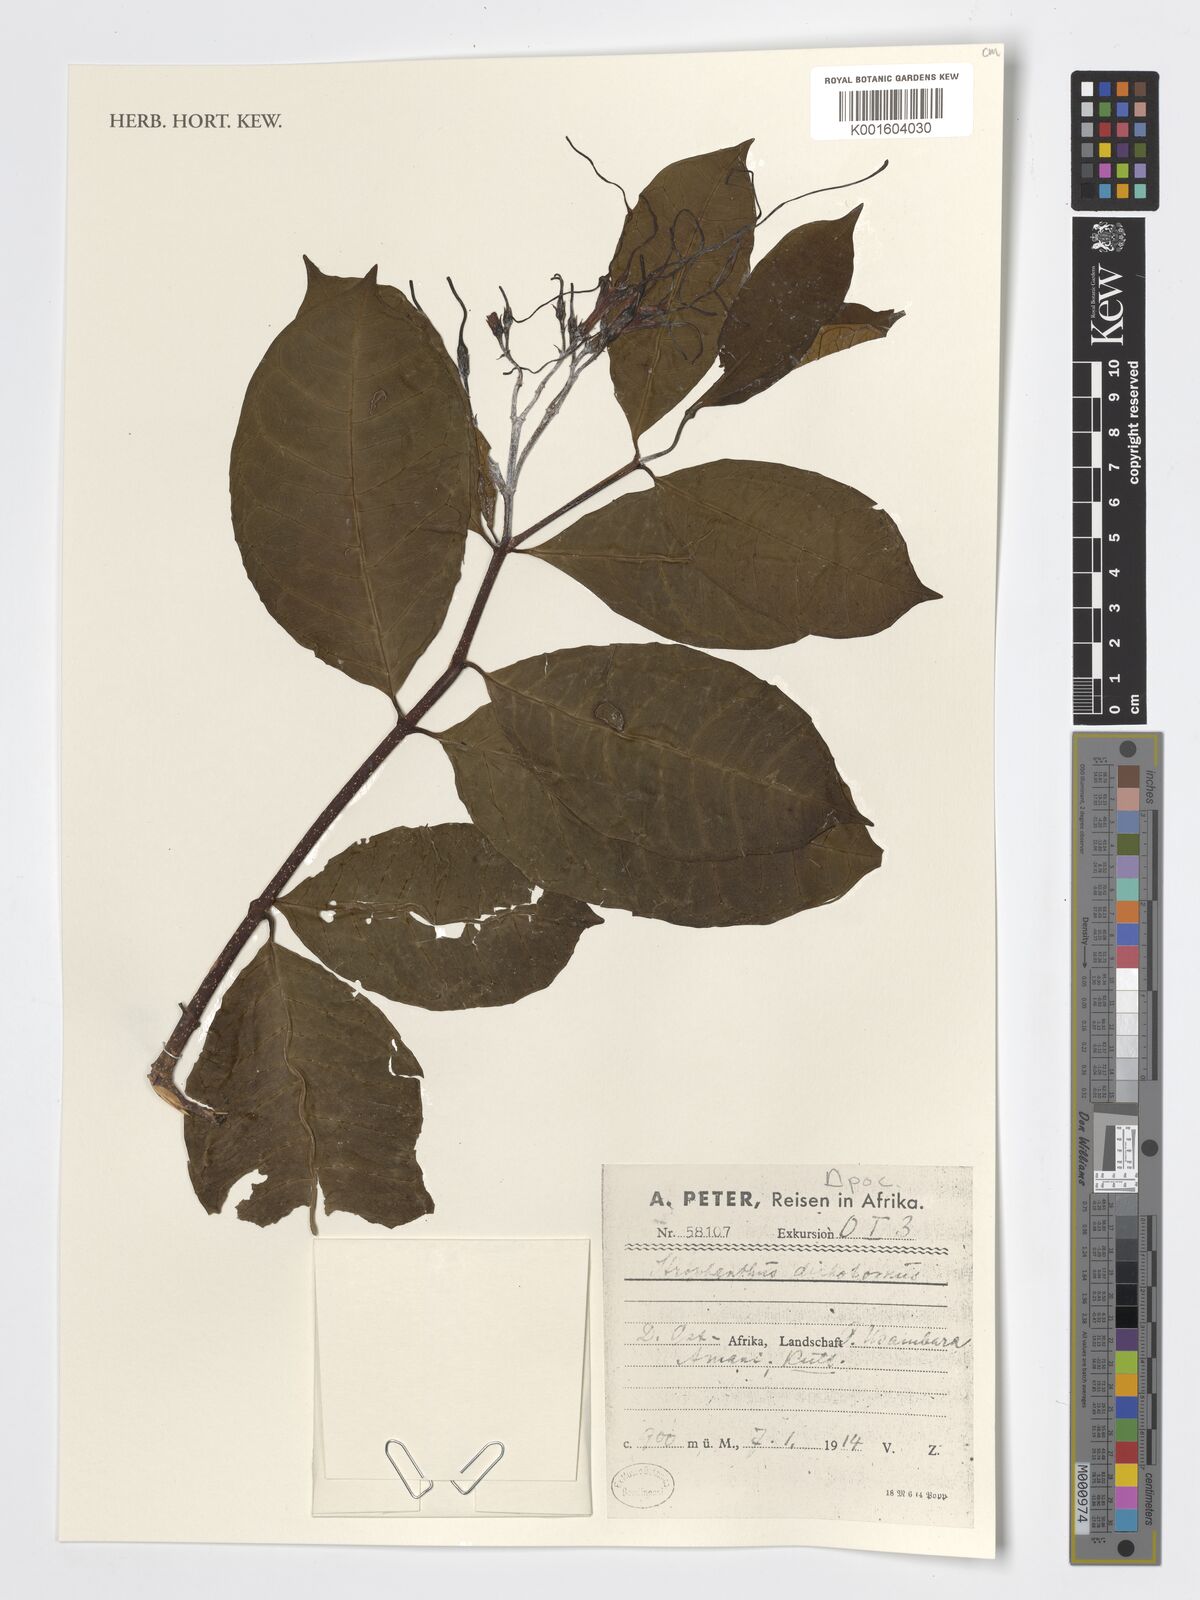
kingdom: Plantae
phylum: Tracheophyta
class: Magnoliopsida
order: Gentianales
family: Apocynaceae
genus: Strophanthus
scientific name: Strophanthus
